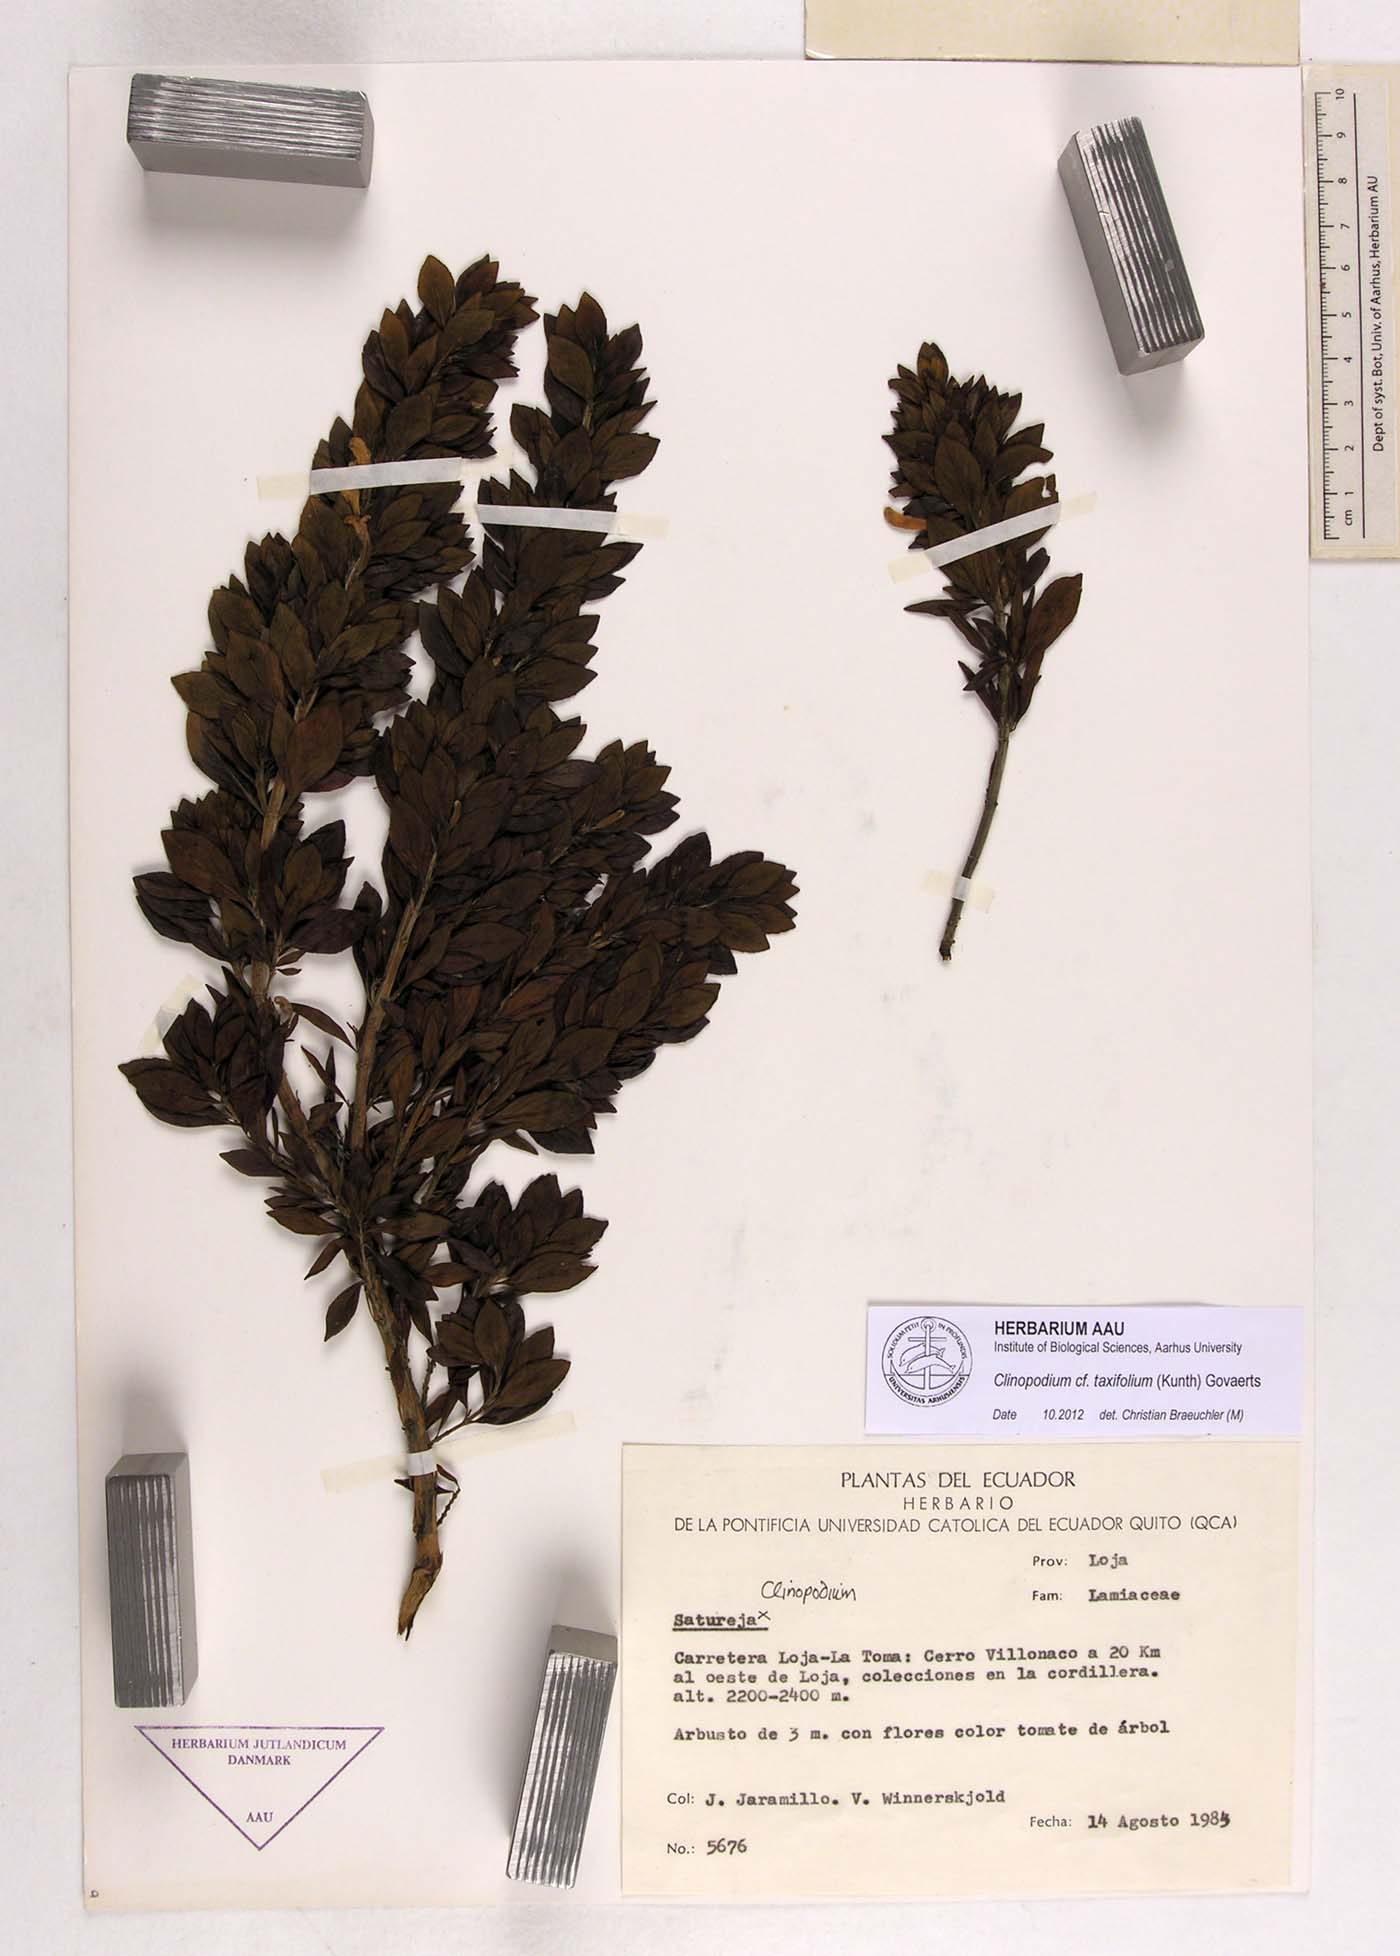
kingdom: Plantae
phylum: Tracheophyta
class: Magnoliopsida
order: Lamiales
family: Lamiaceae
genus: Clinopodium
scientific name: Clinopodium taxifolium
